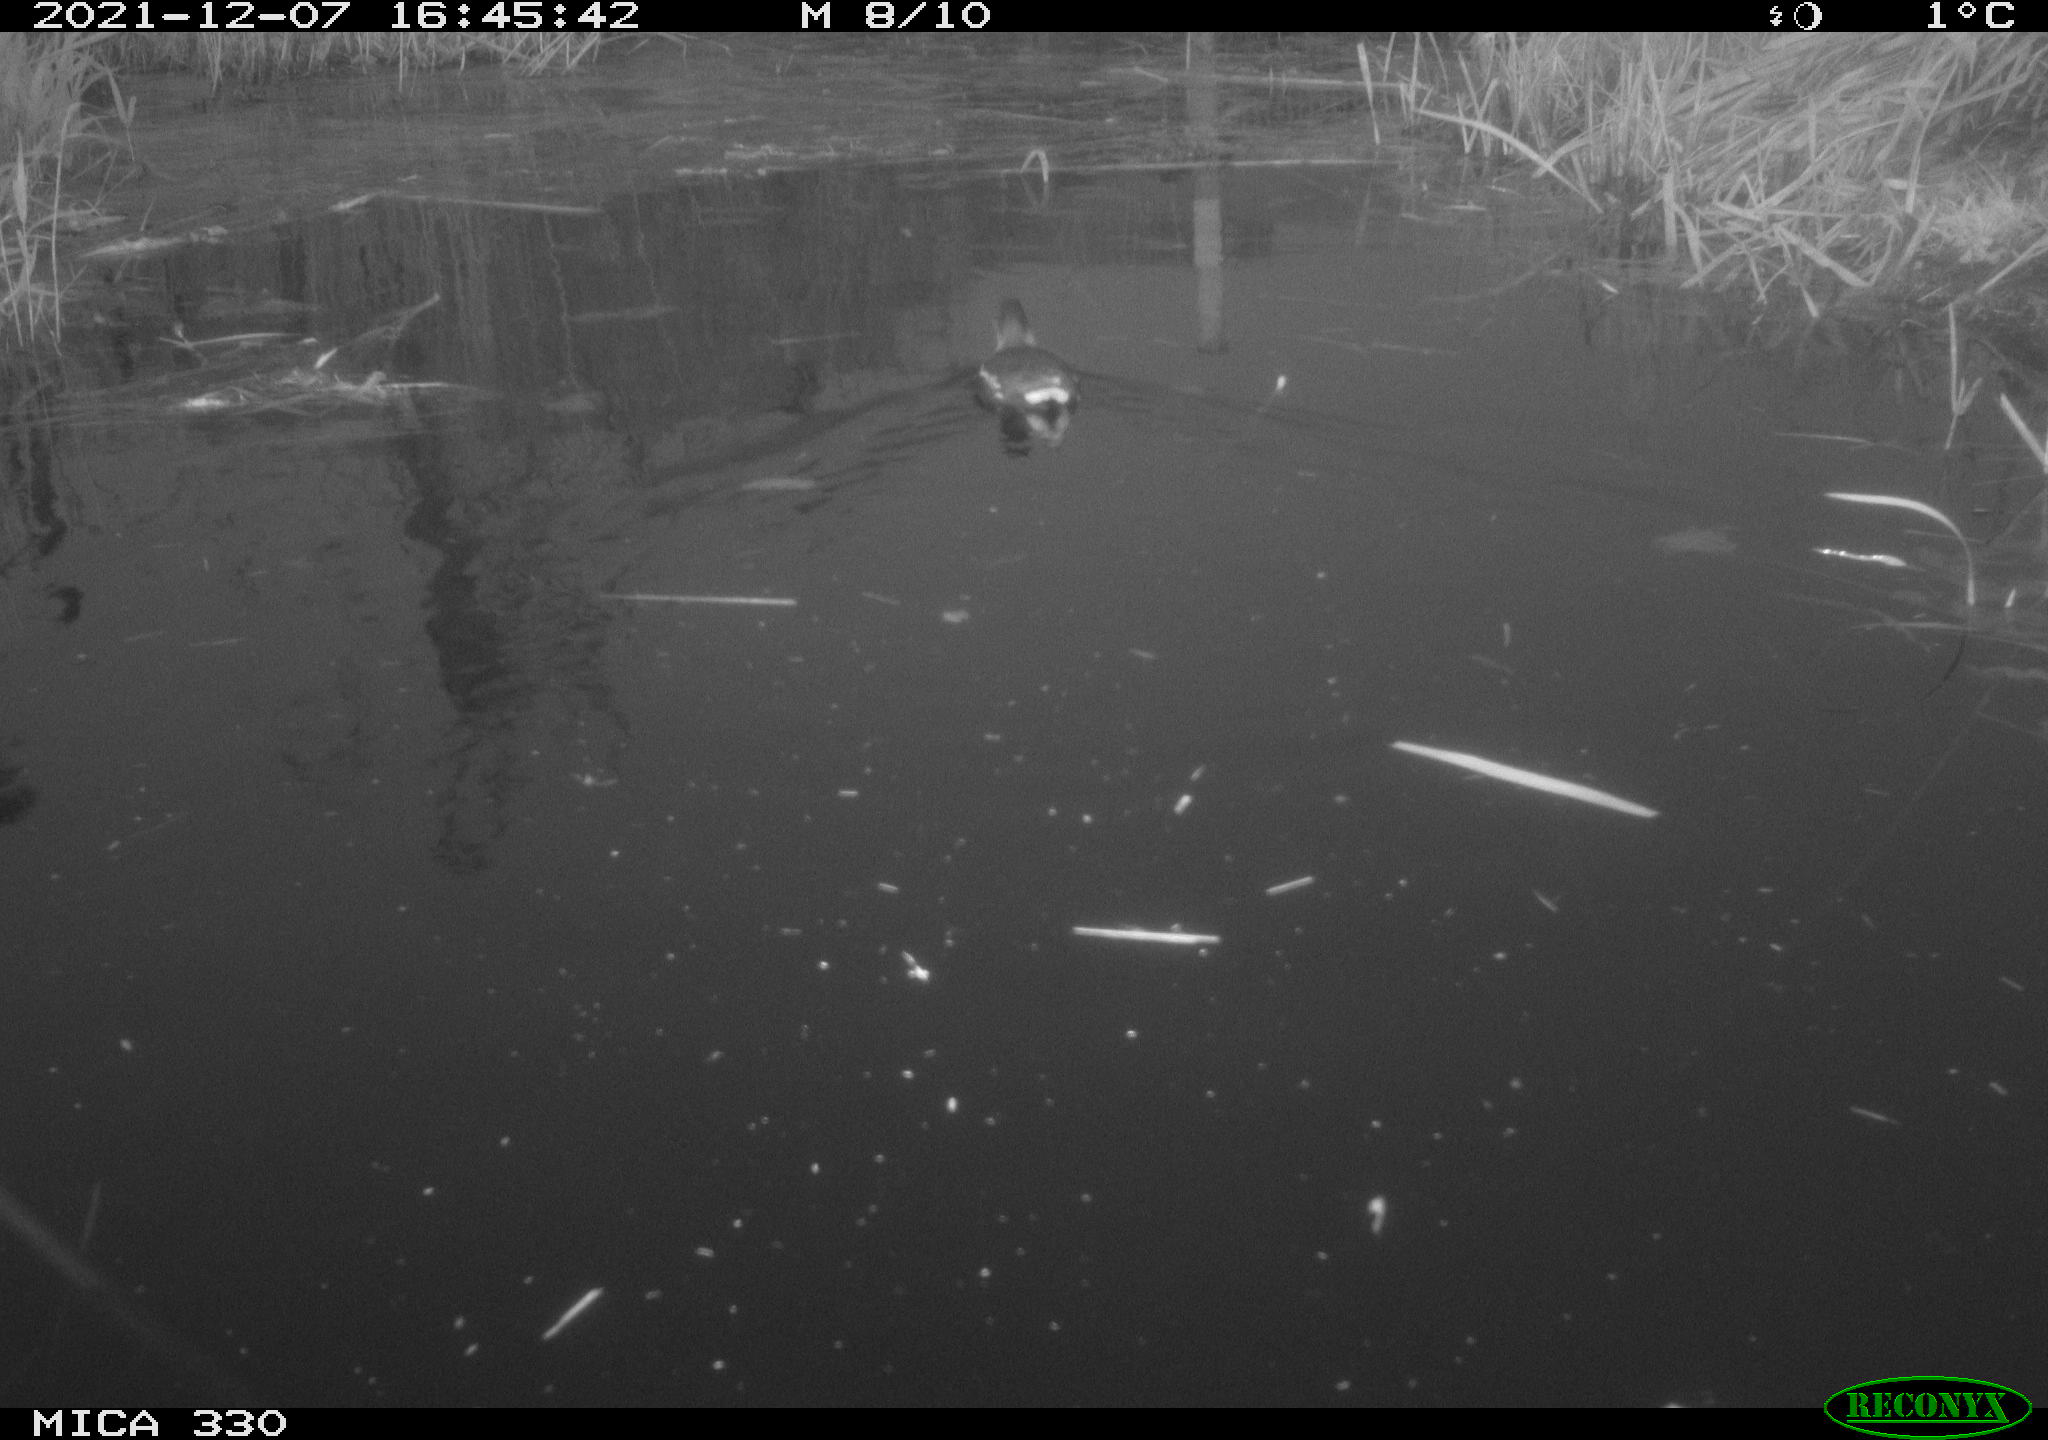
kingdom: Animalia
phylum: Chordata
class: Aves
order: Gruiformes
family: Rallidae
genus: Gallinula
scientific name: Gallinula chloropus
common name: Common moorhen
